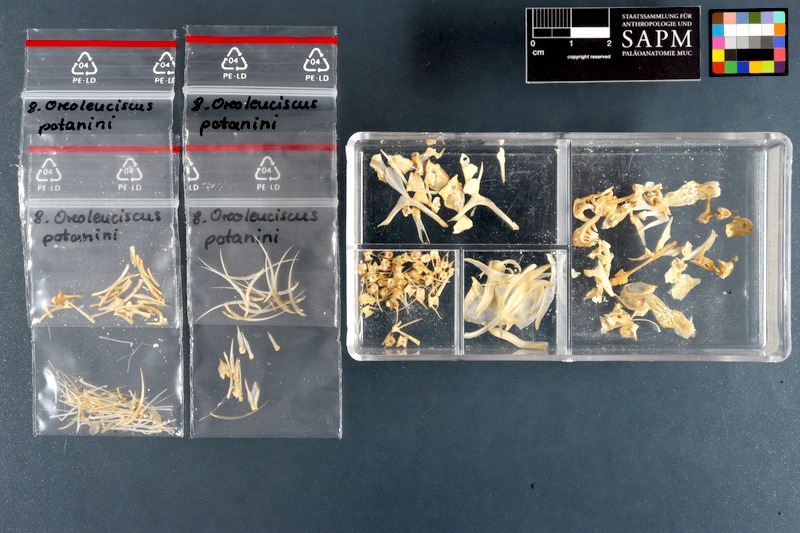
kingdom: Animalia
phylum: Chordata
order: Cypriniformes
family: Cyprinidae
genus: Oreoleuciscus
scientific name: Oreoleuciscus potanini
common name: Altai osman
